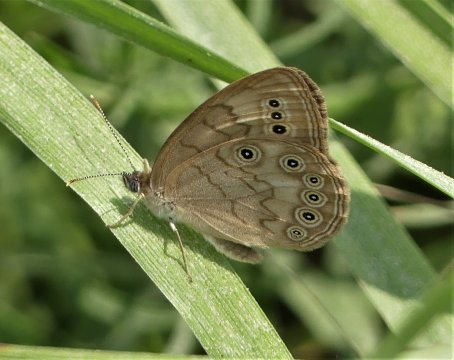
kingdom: Animalia
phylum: Arthropoda
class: Insecta
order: Lepidoptera
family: Nymphalidae
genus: Lethe
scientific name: Lethe eurydice
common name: Eyed Brown
